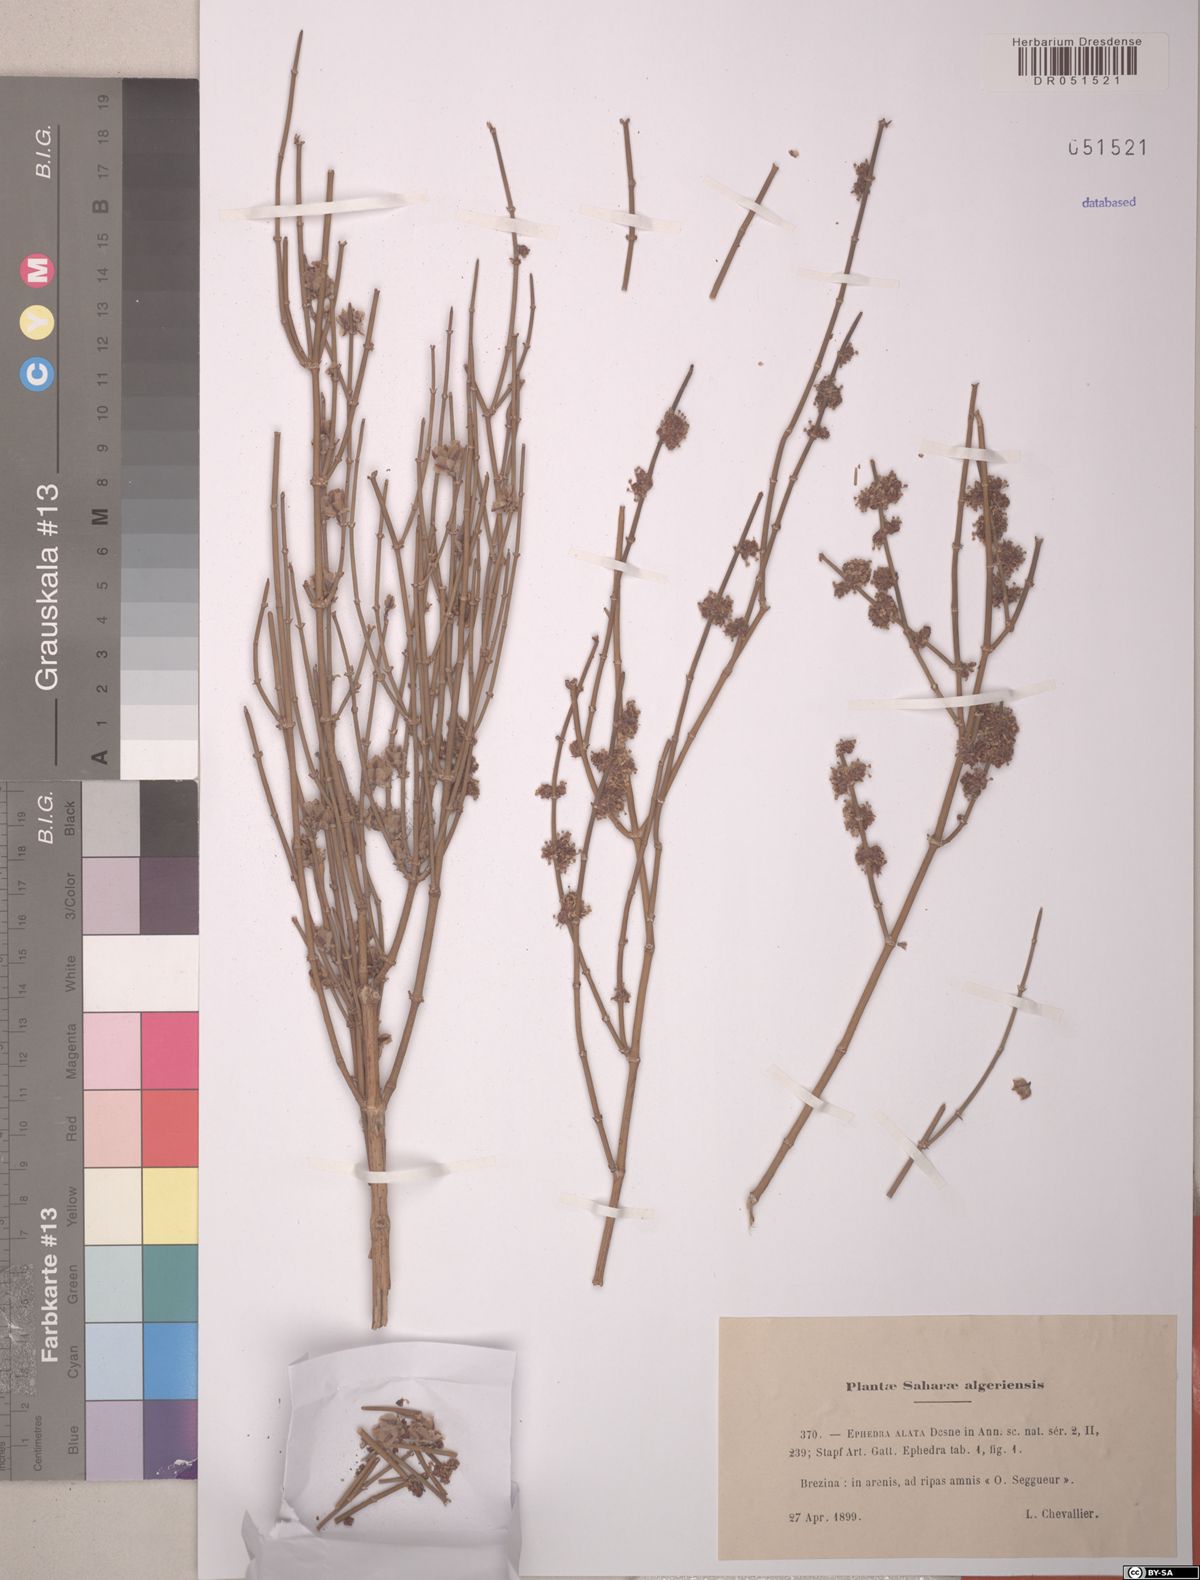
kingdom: Plantae
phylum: Tracheophyta
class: Gnetopsida
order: Ephedrales
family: Ephedraceae
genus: Ephedra
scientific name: Ephedra alata
